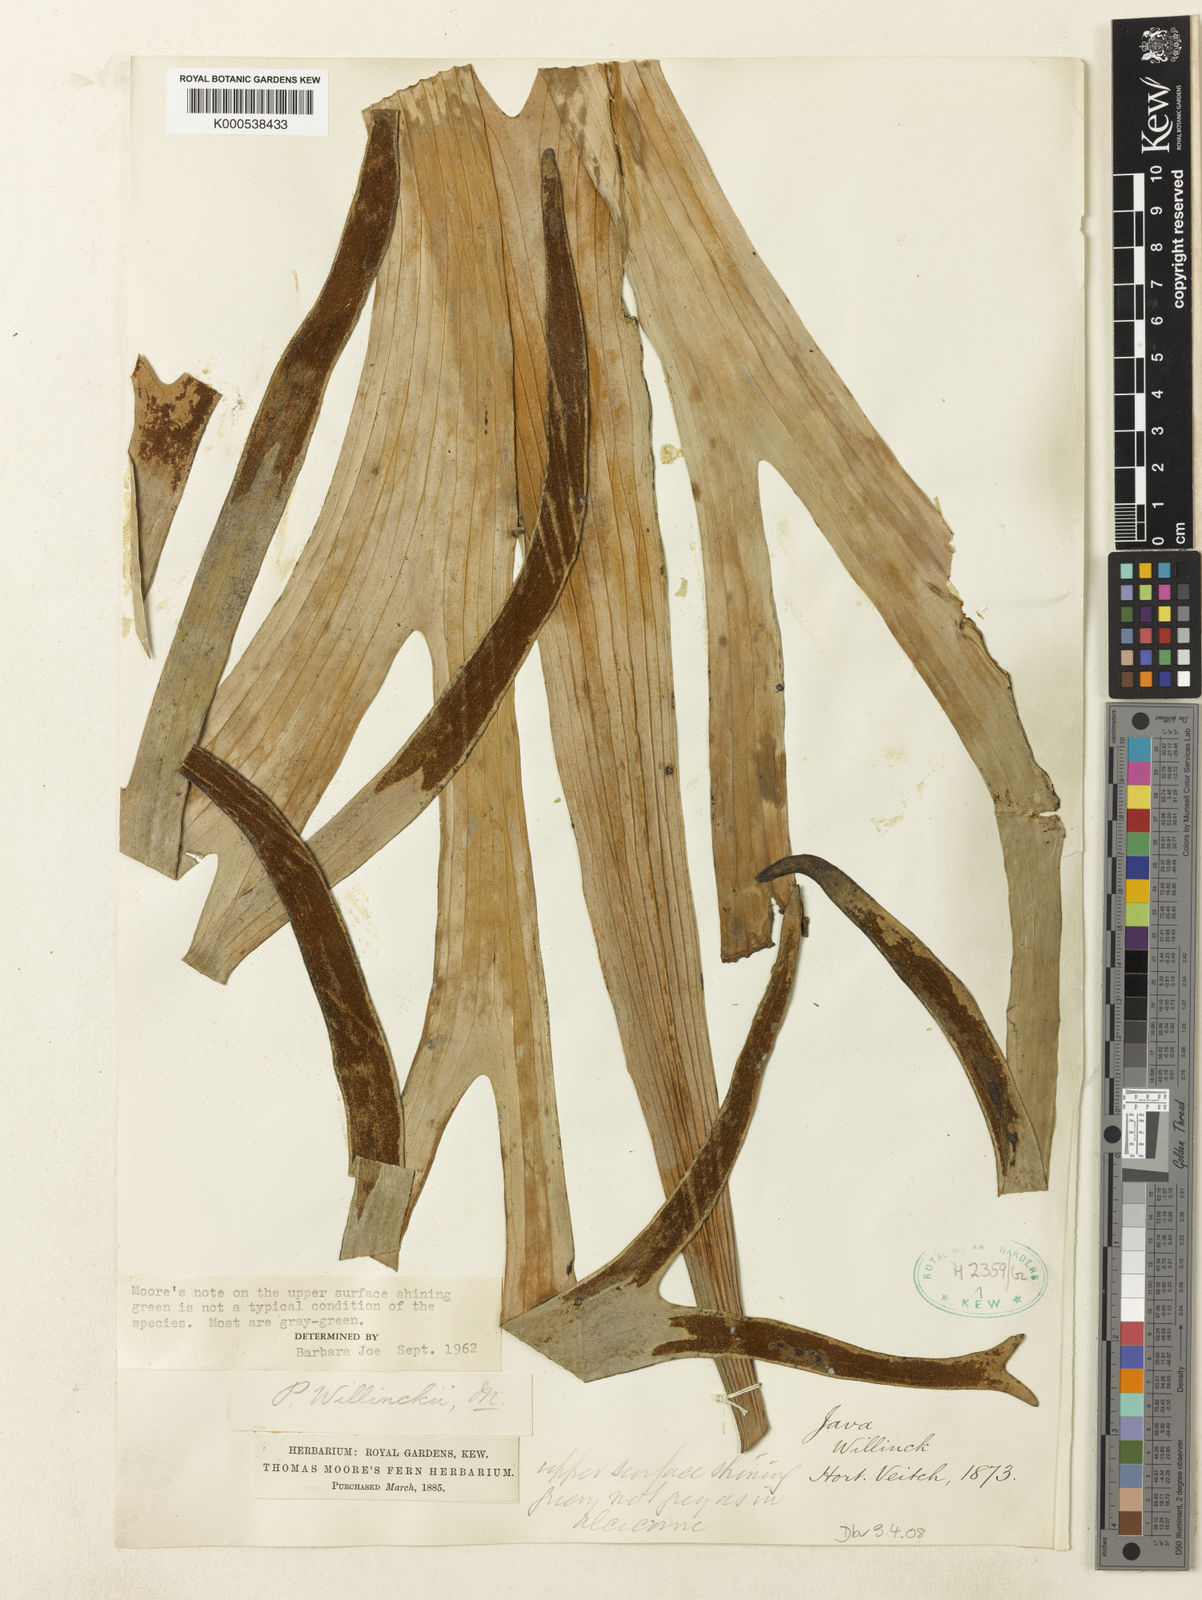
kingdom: Plantae
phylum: Tracheophyta
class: Polypodiopsida
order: Polypodiales
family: Polypodiaceae
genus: Platycerium
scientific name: Platycerium bifurcatum
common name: Elkhorn fern
